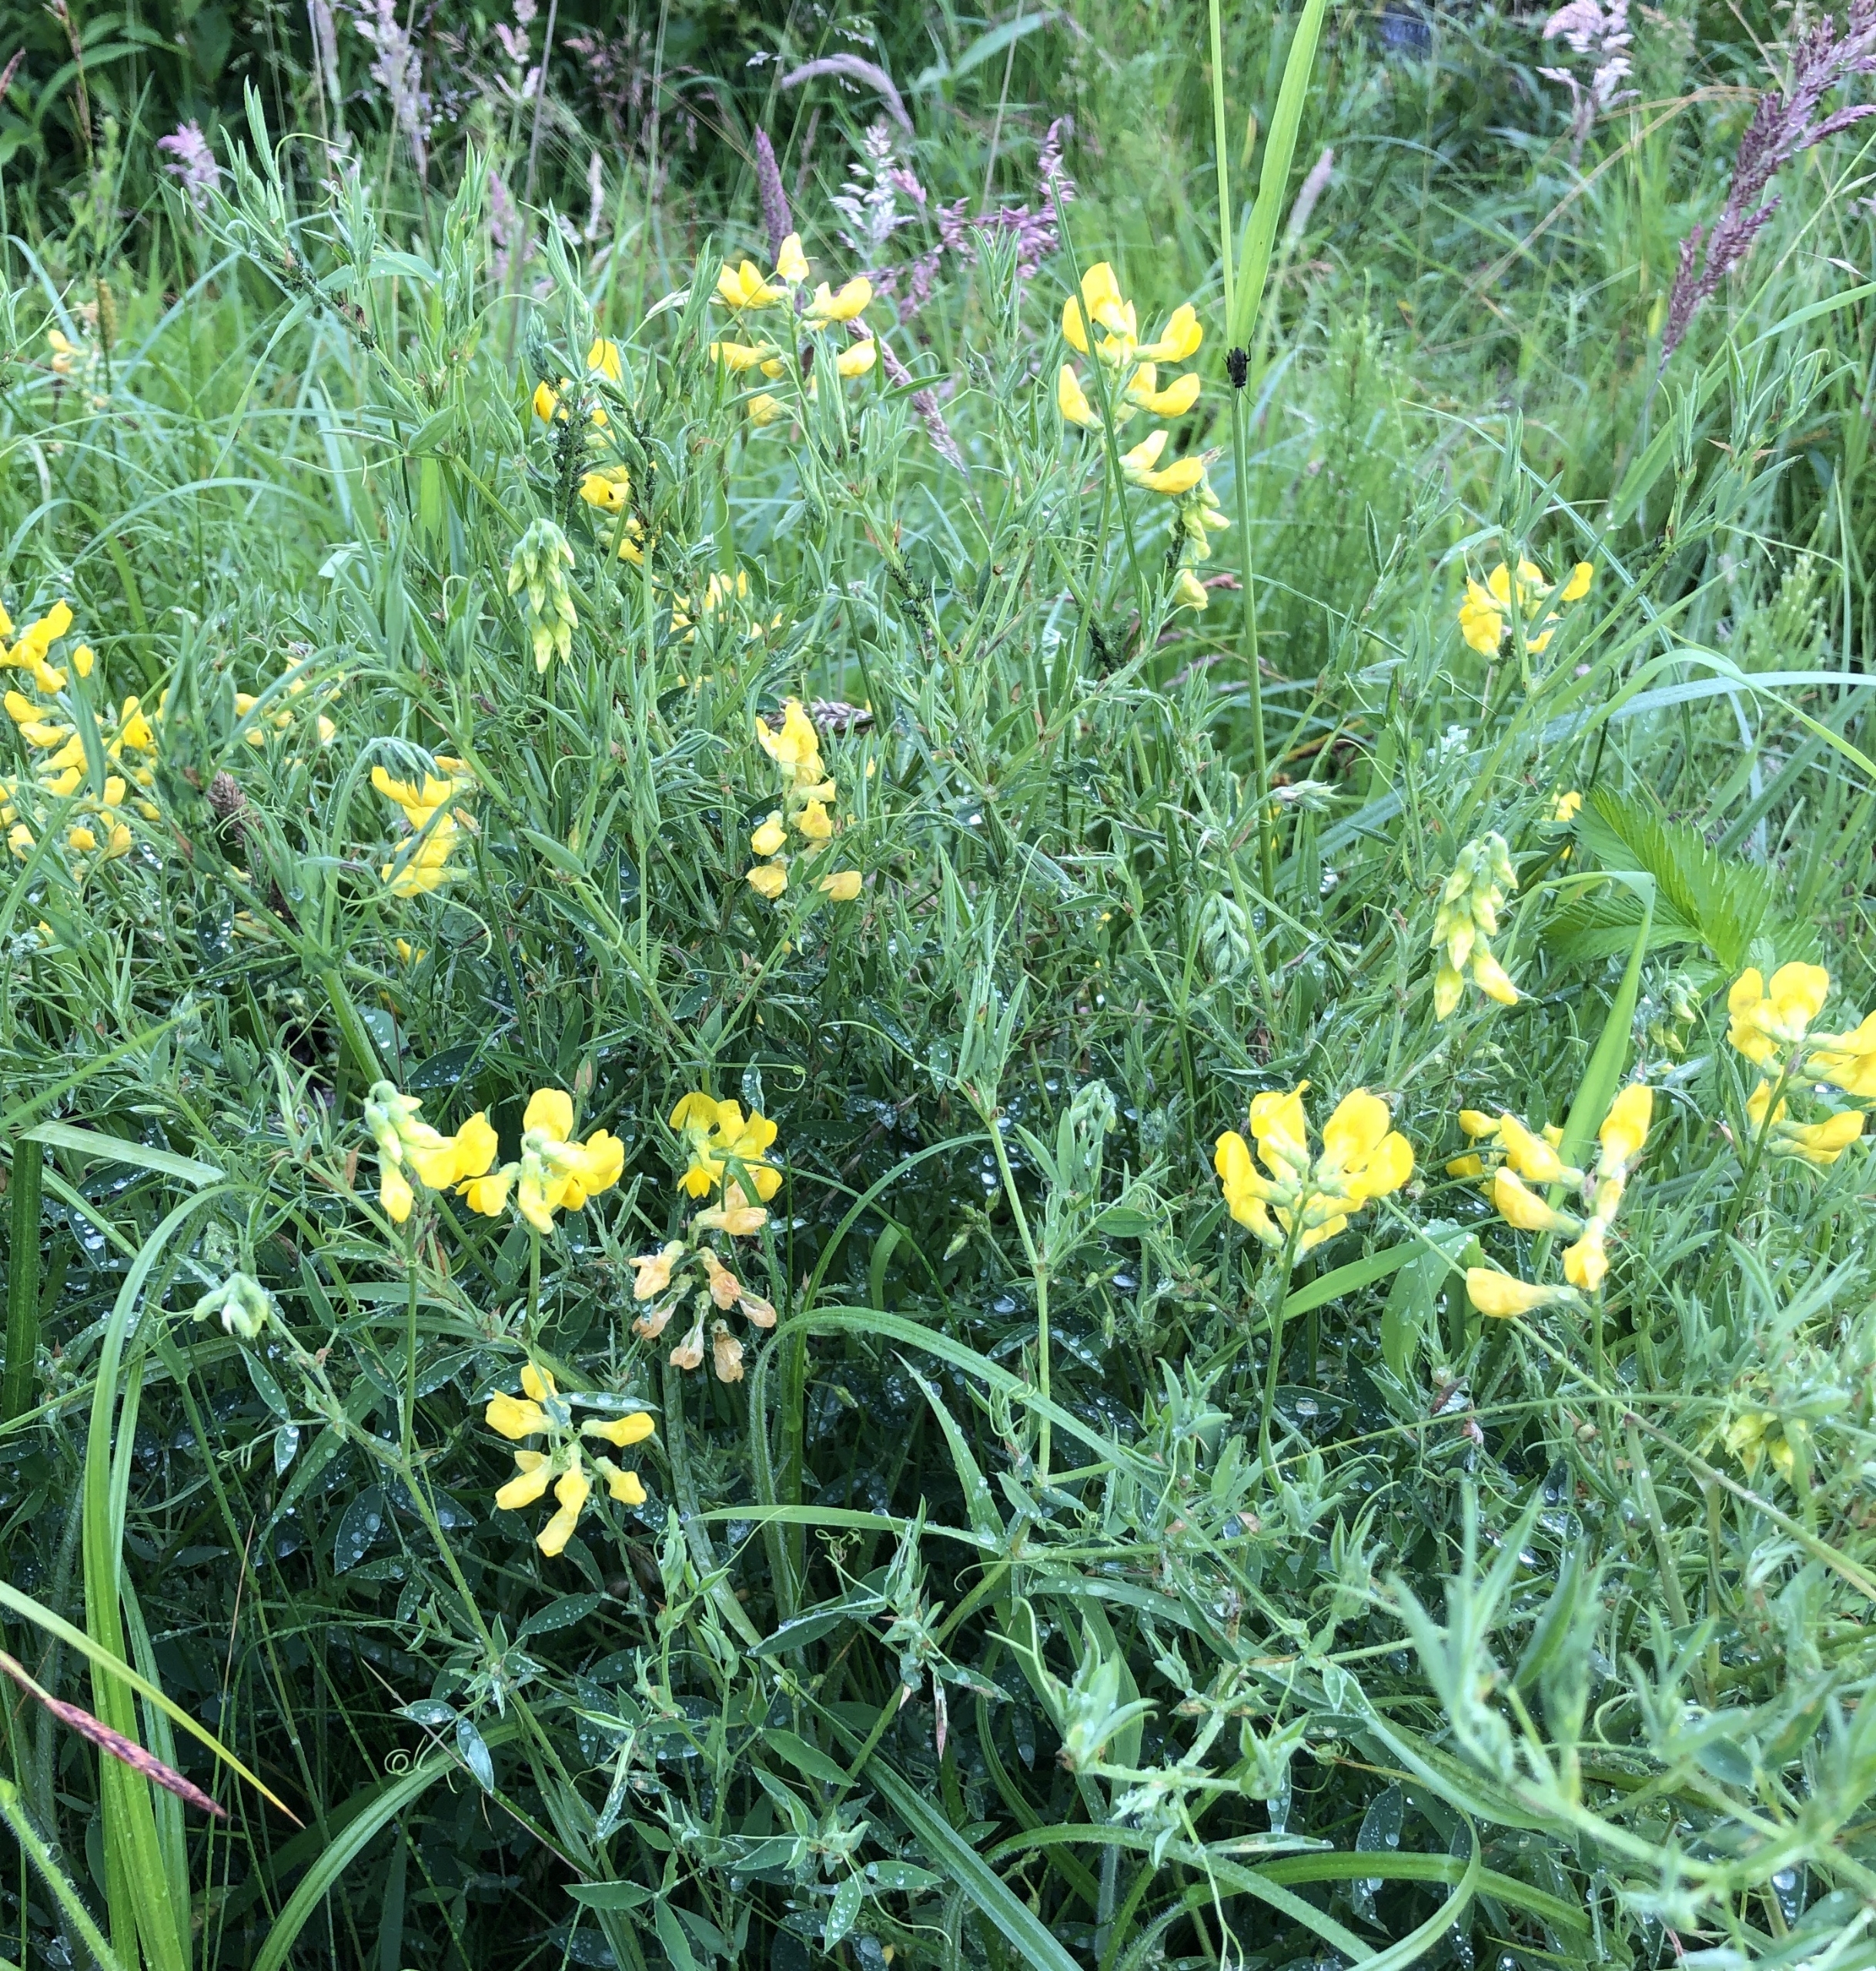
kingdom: Plantae
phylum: Tracheophyta
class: Magnoliopsida
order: Fabales
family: Fabaceae
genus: Lathyrus
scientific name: Lathyrus pratensis
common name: Gul fladbælg
